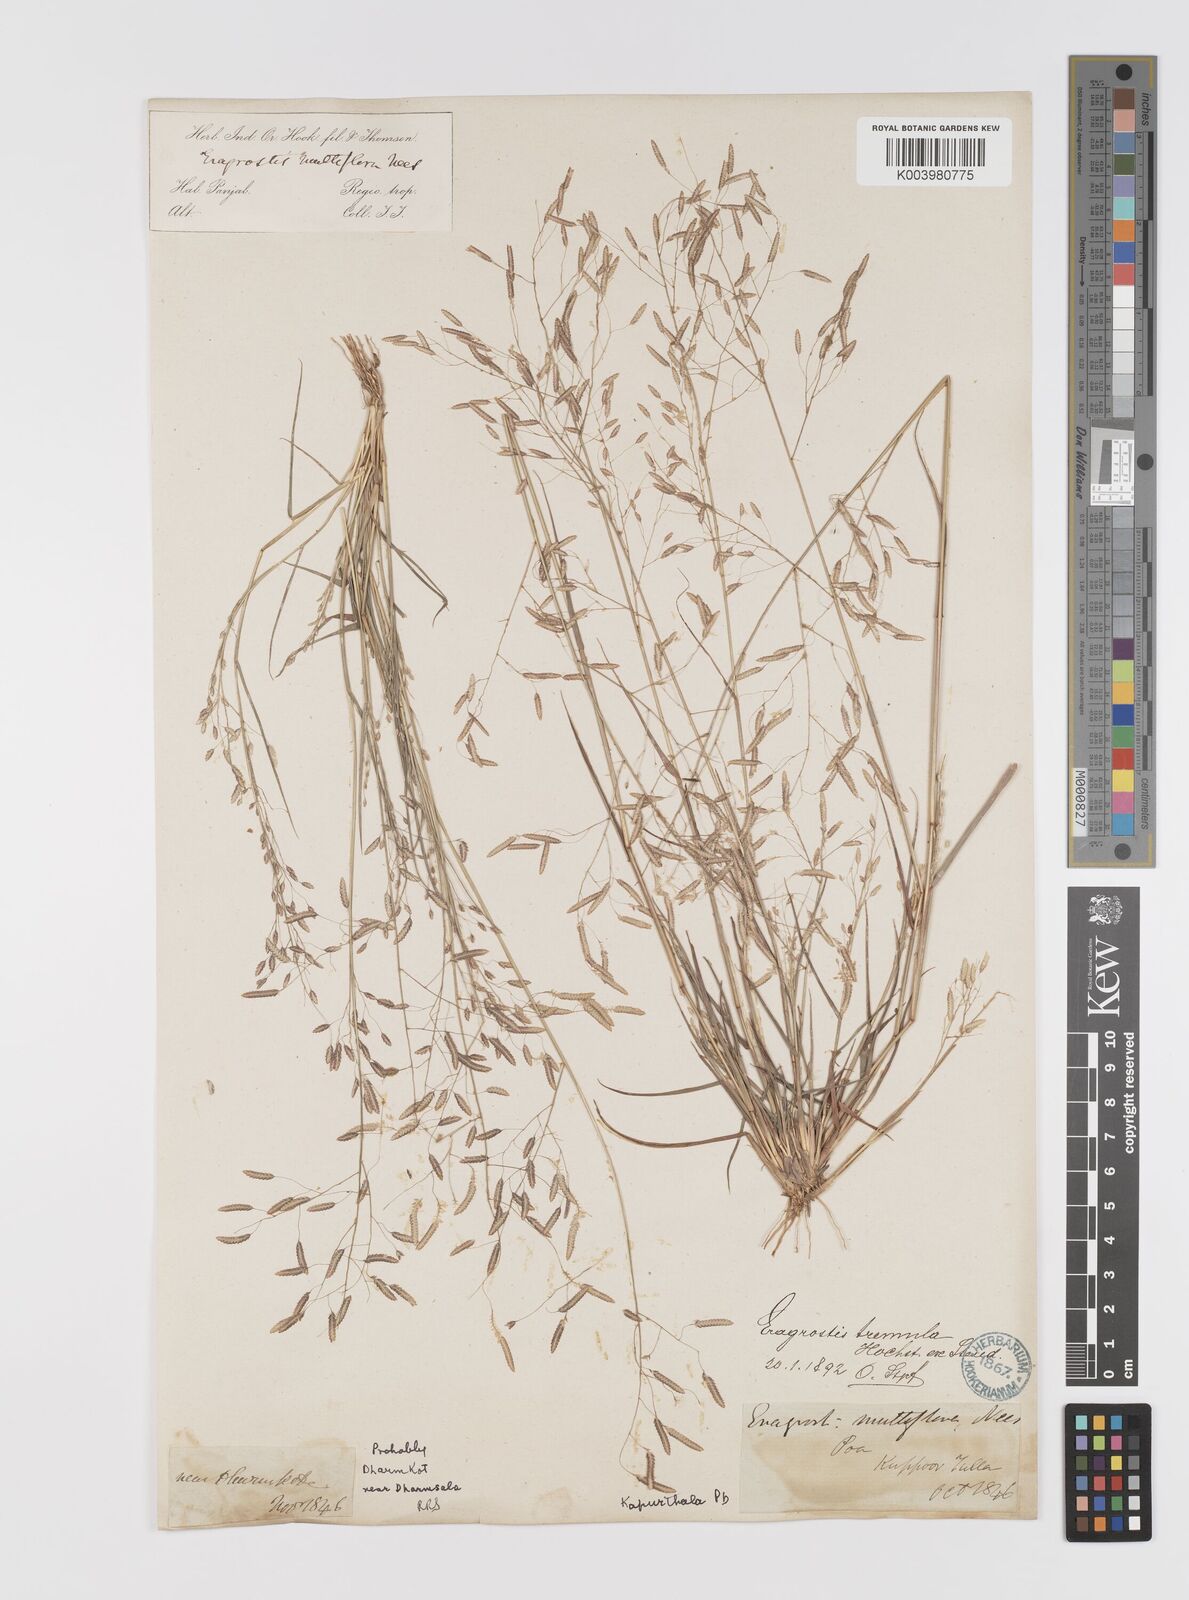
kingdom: Plantae
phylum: Tracheophyta
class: Liliopsida
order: Poales
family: Poaceae
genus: Eragrostis
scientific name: Eragrostis tremula
